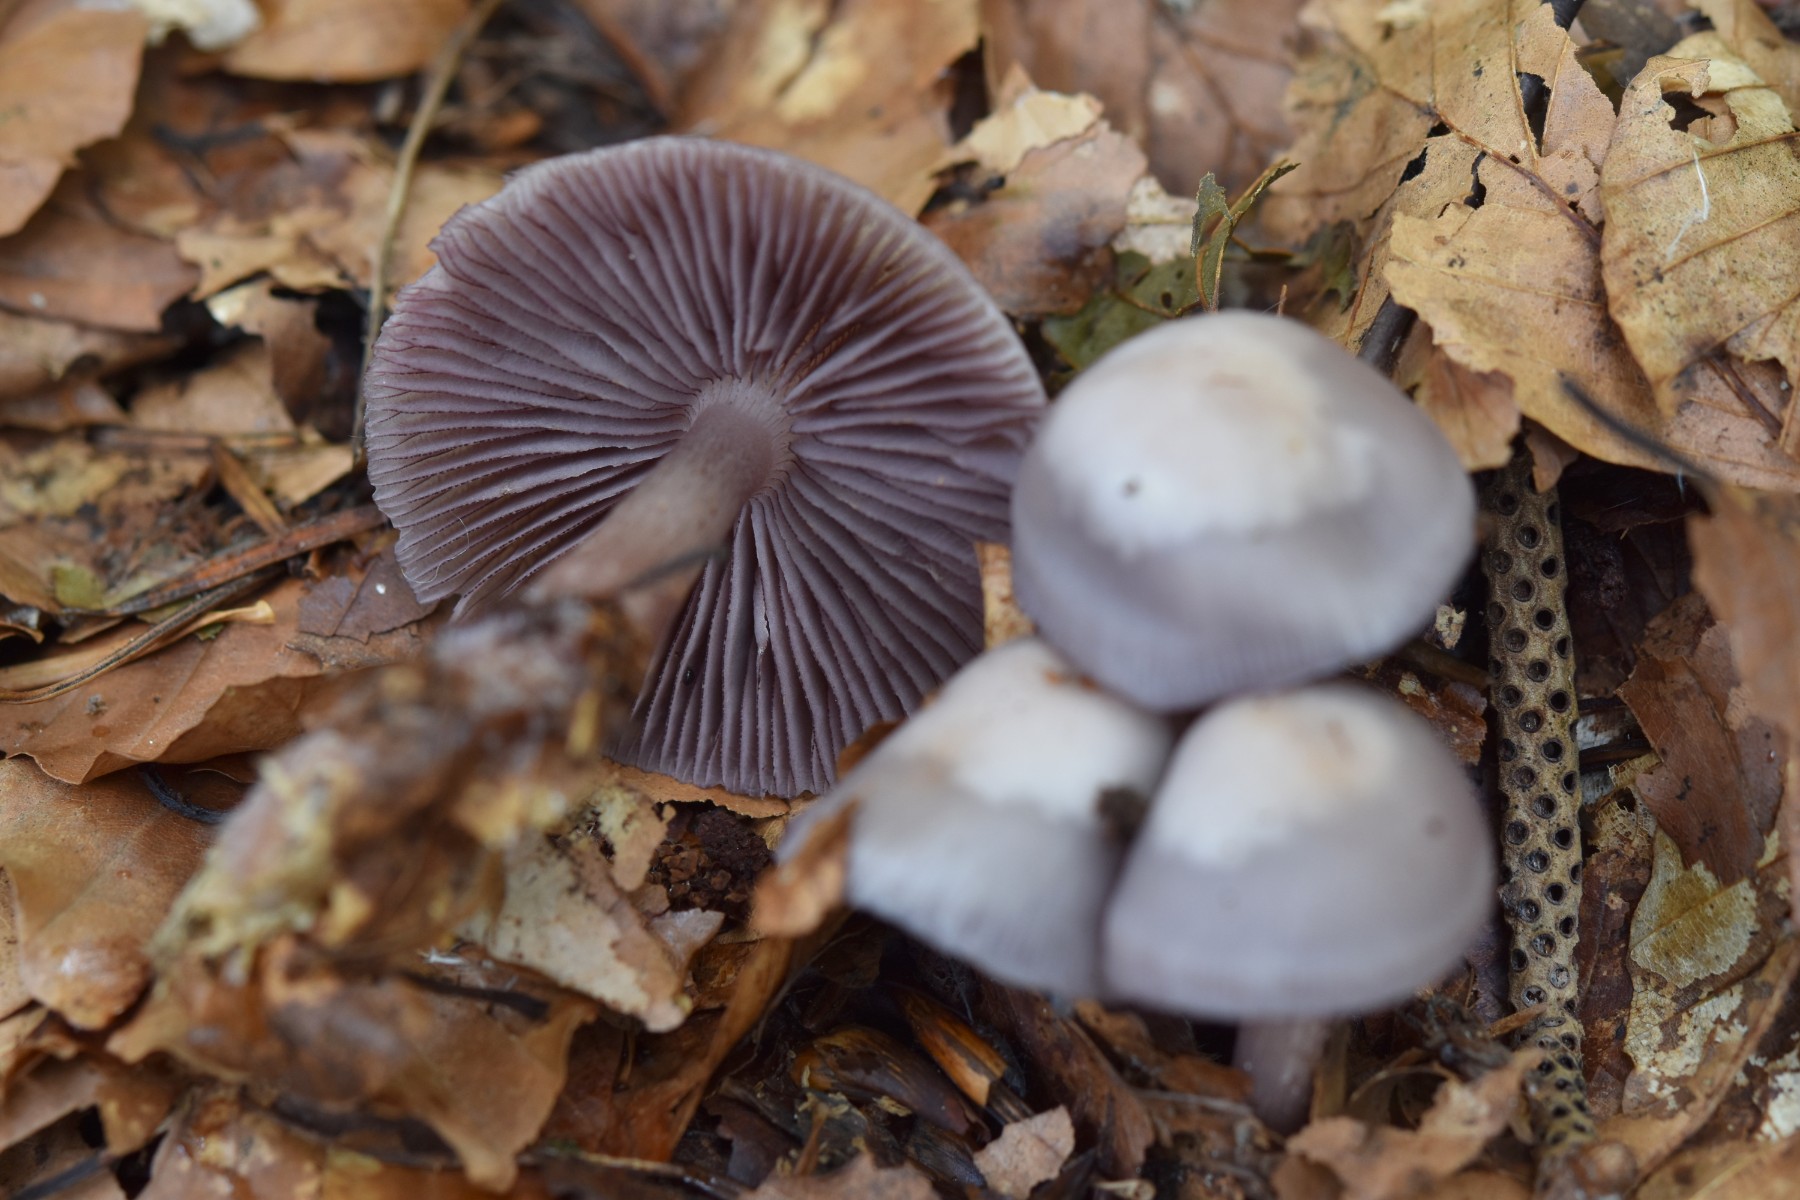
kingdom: Fungi
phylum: Basidiomycota
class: Agaricomycetes
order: Agaricales
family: Mycenaceae
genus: Mycena
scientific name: Mycena pelianthina
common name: mørkbladet huesvamp
